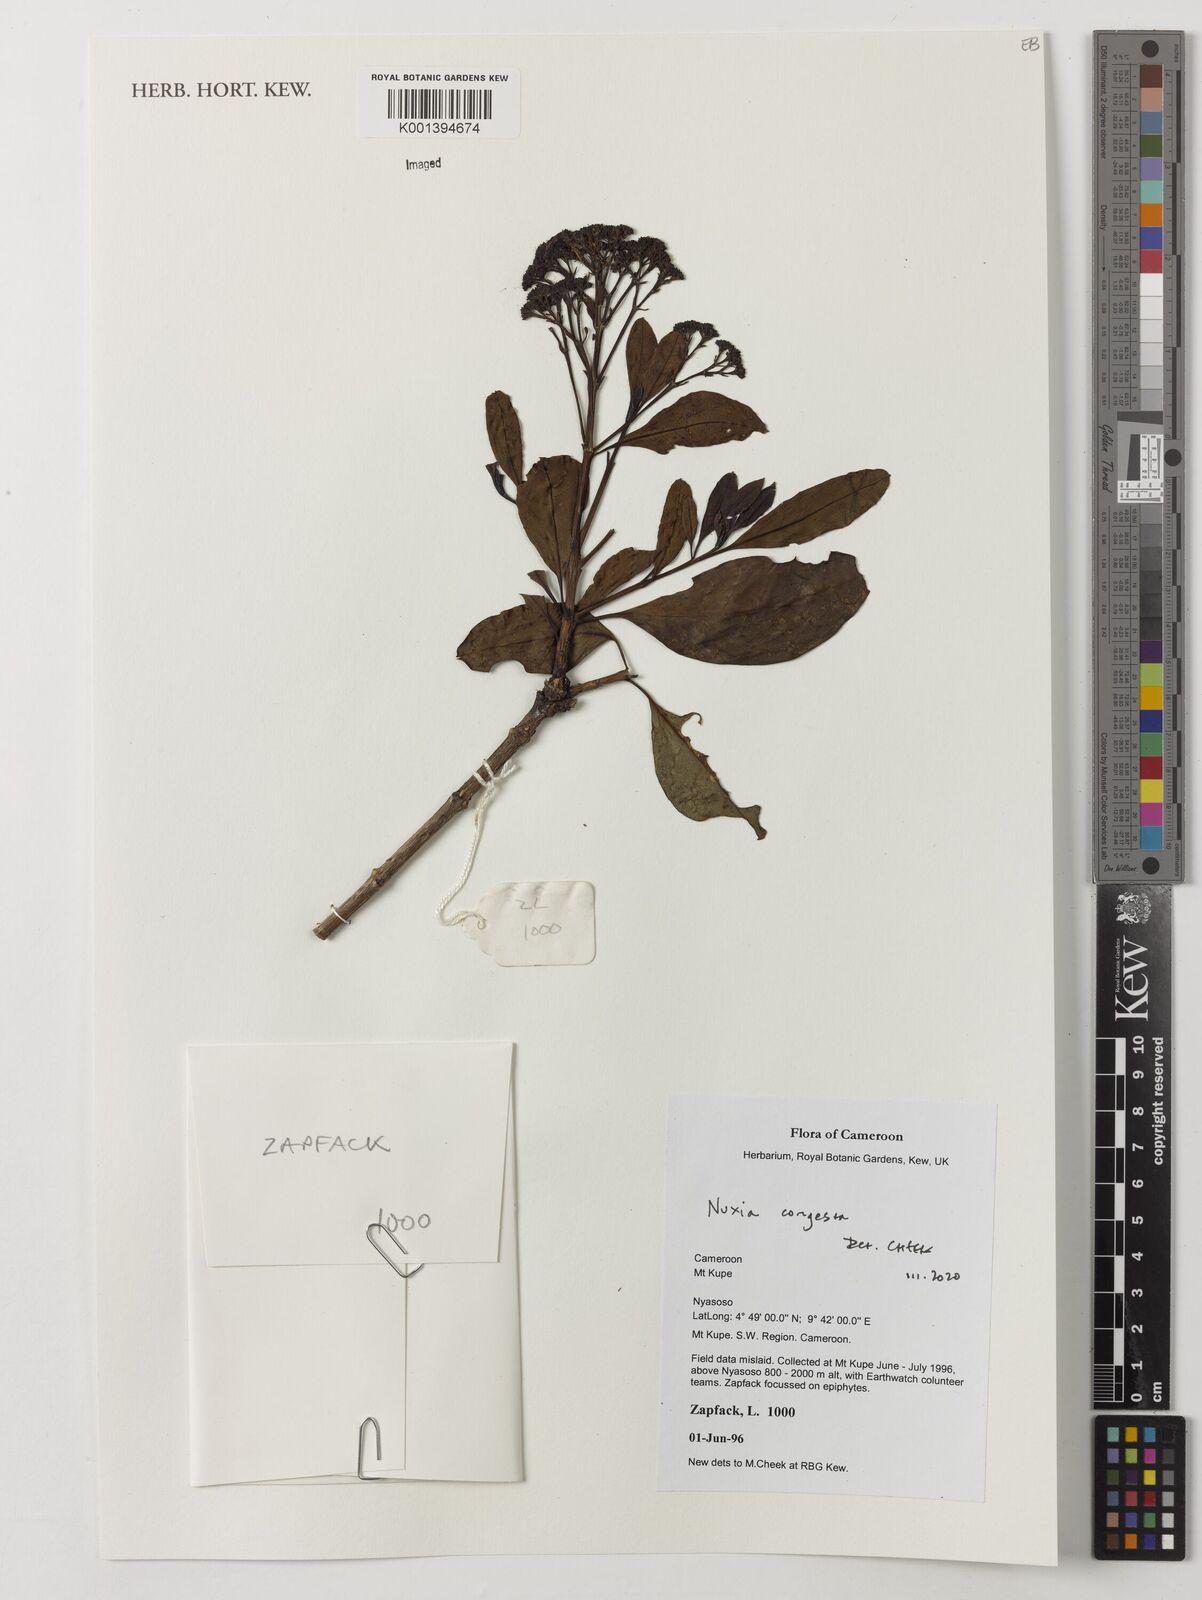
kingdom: Plantae
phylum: Tracheophyta
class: Magnoliopsida
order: Lamiales
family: Stilbaceae
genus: Nuxia
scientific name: Nuxia congesta
